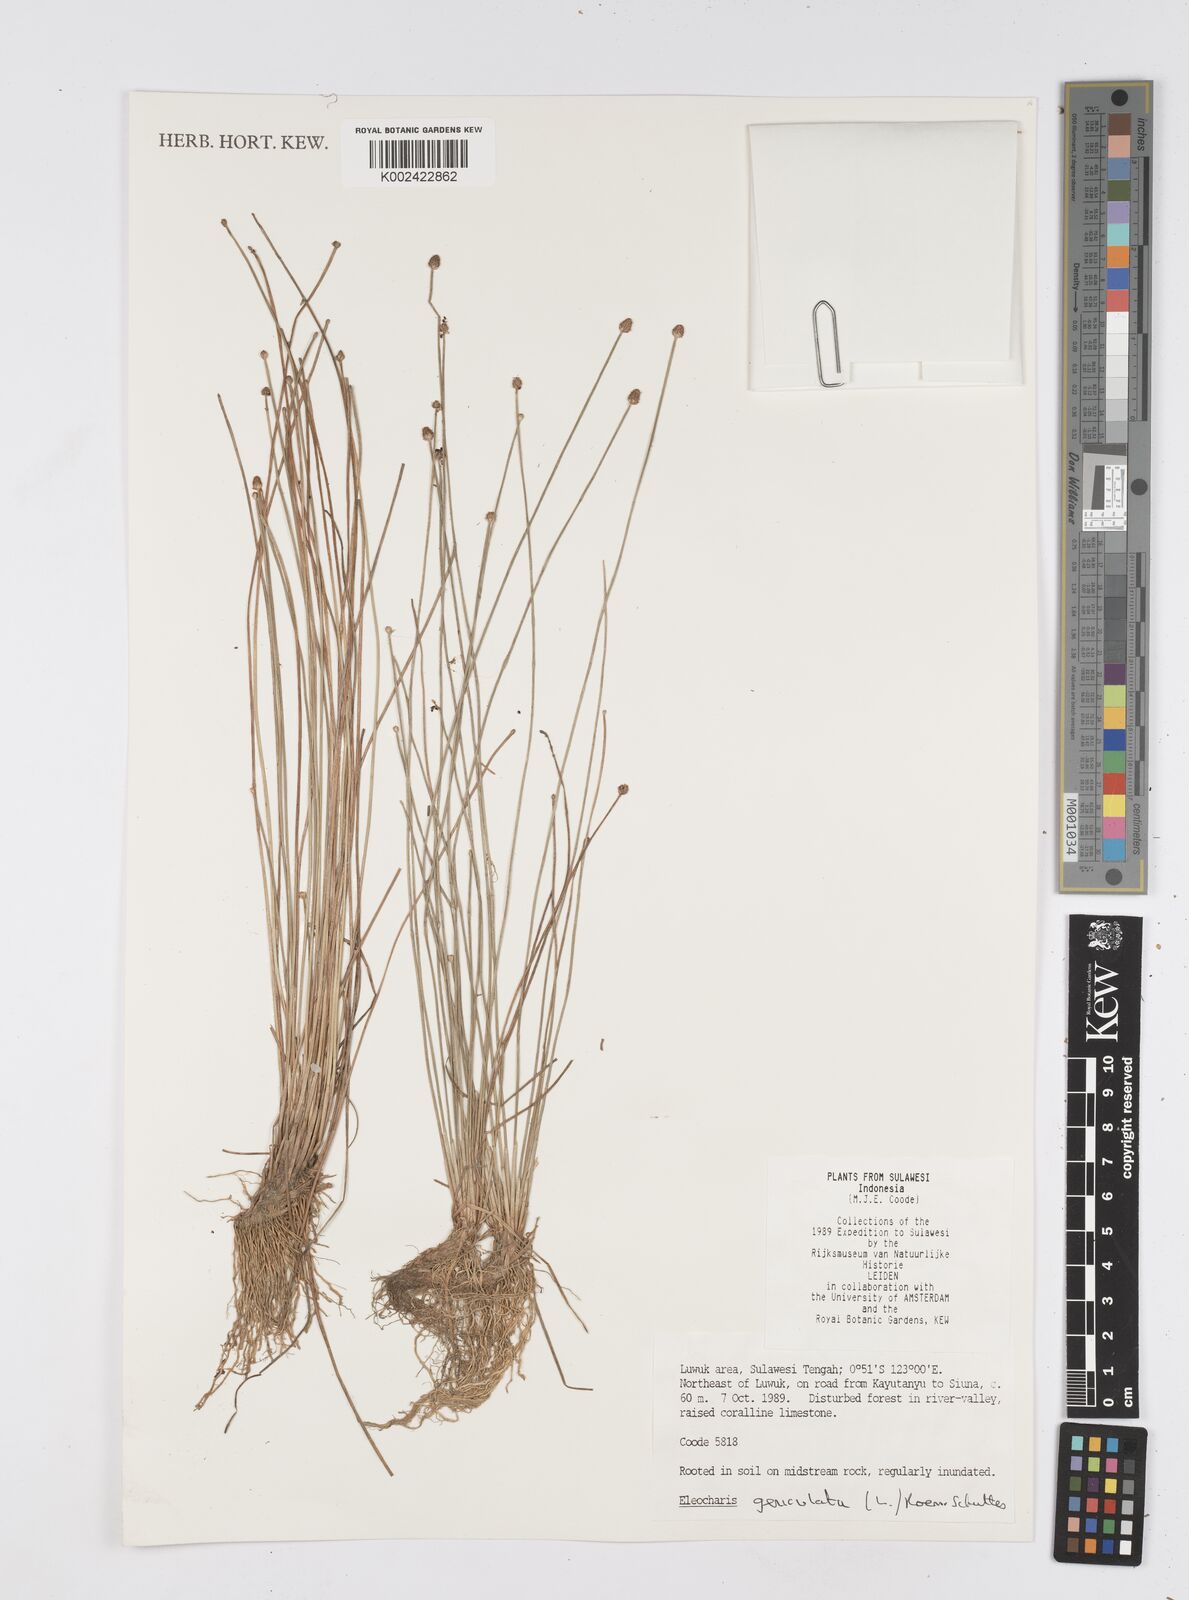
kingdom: Plantae
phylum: Tracheophyta
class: Liliopsida
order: Poales
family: Cyperaceae
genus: Eleocharis
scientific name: Eleocharis geniculata
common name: Canada spikesedge
